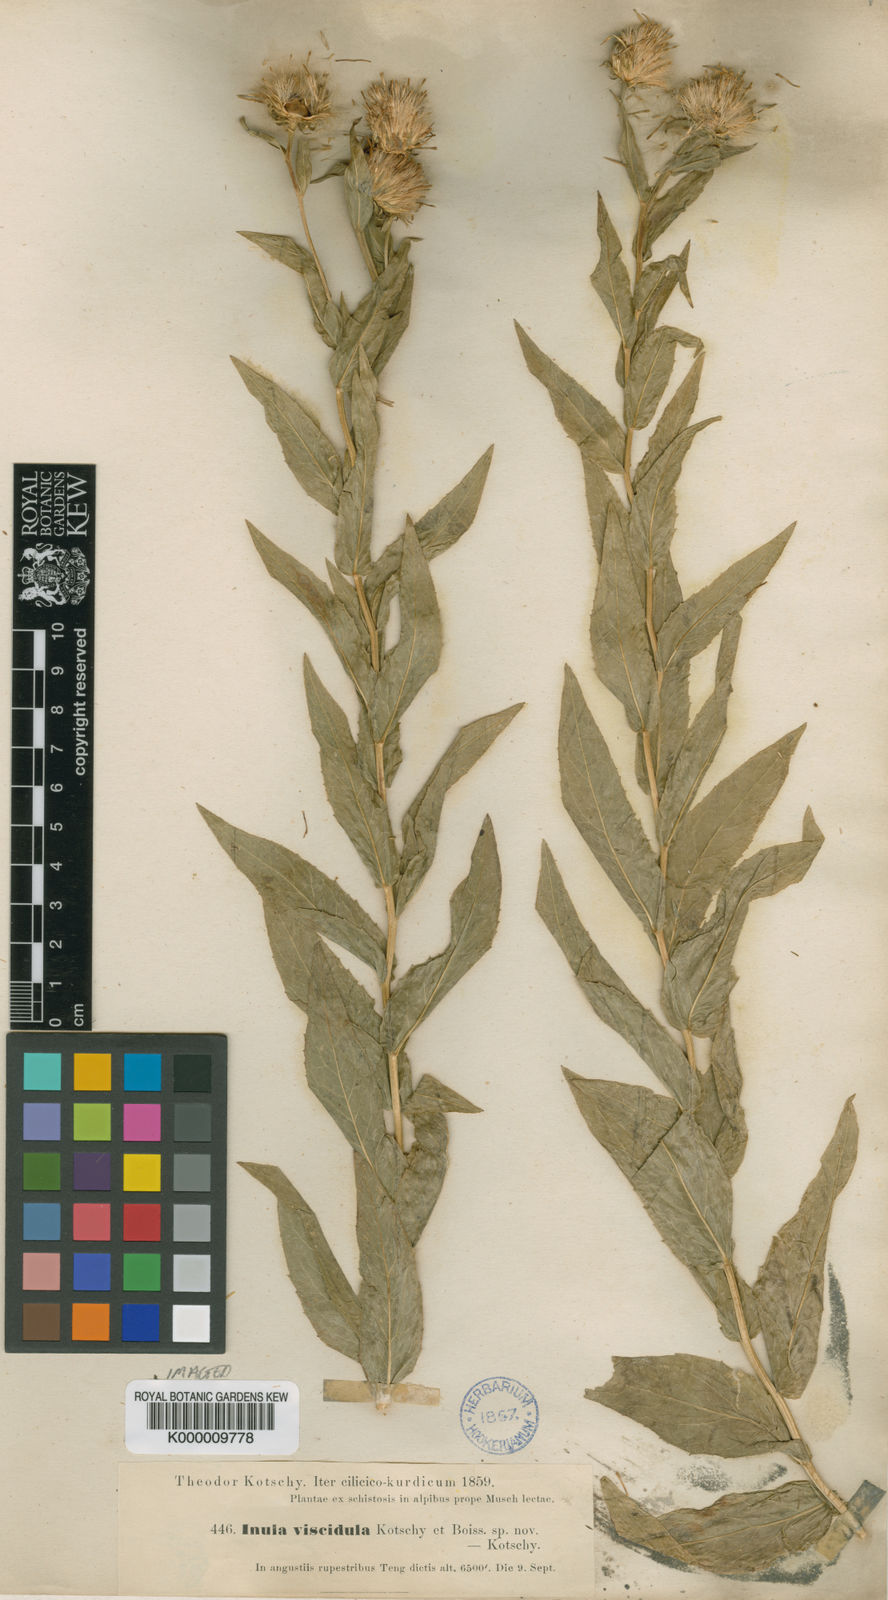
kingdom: Plantae
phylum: Tracheophyta
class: Magnoliopsida
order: Asterales
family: Asteraceae
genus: Inula
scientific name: Inula viscidula
